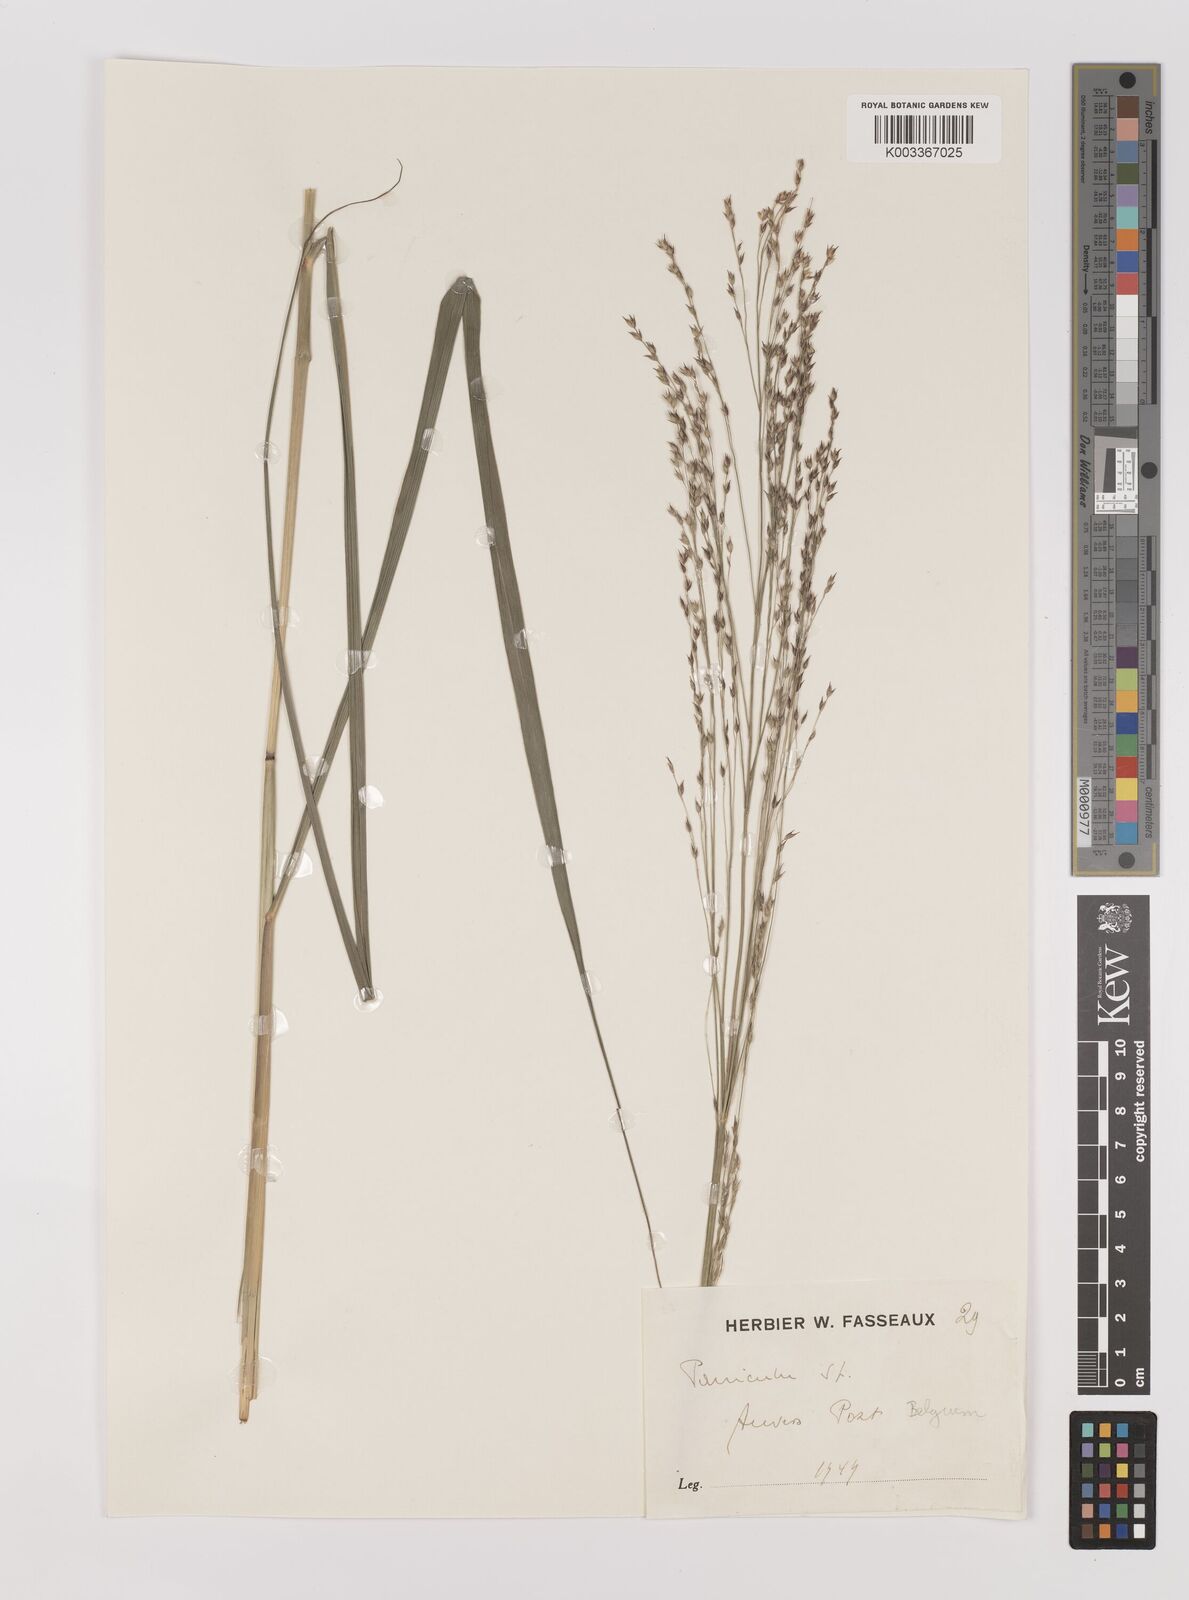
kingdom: Plantae
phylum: Tracheophyta
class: Liliopsida
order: Poales
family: Poaceae
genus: Panicum
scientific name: Panicum virgatum
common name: Switchgrass
